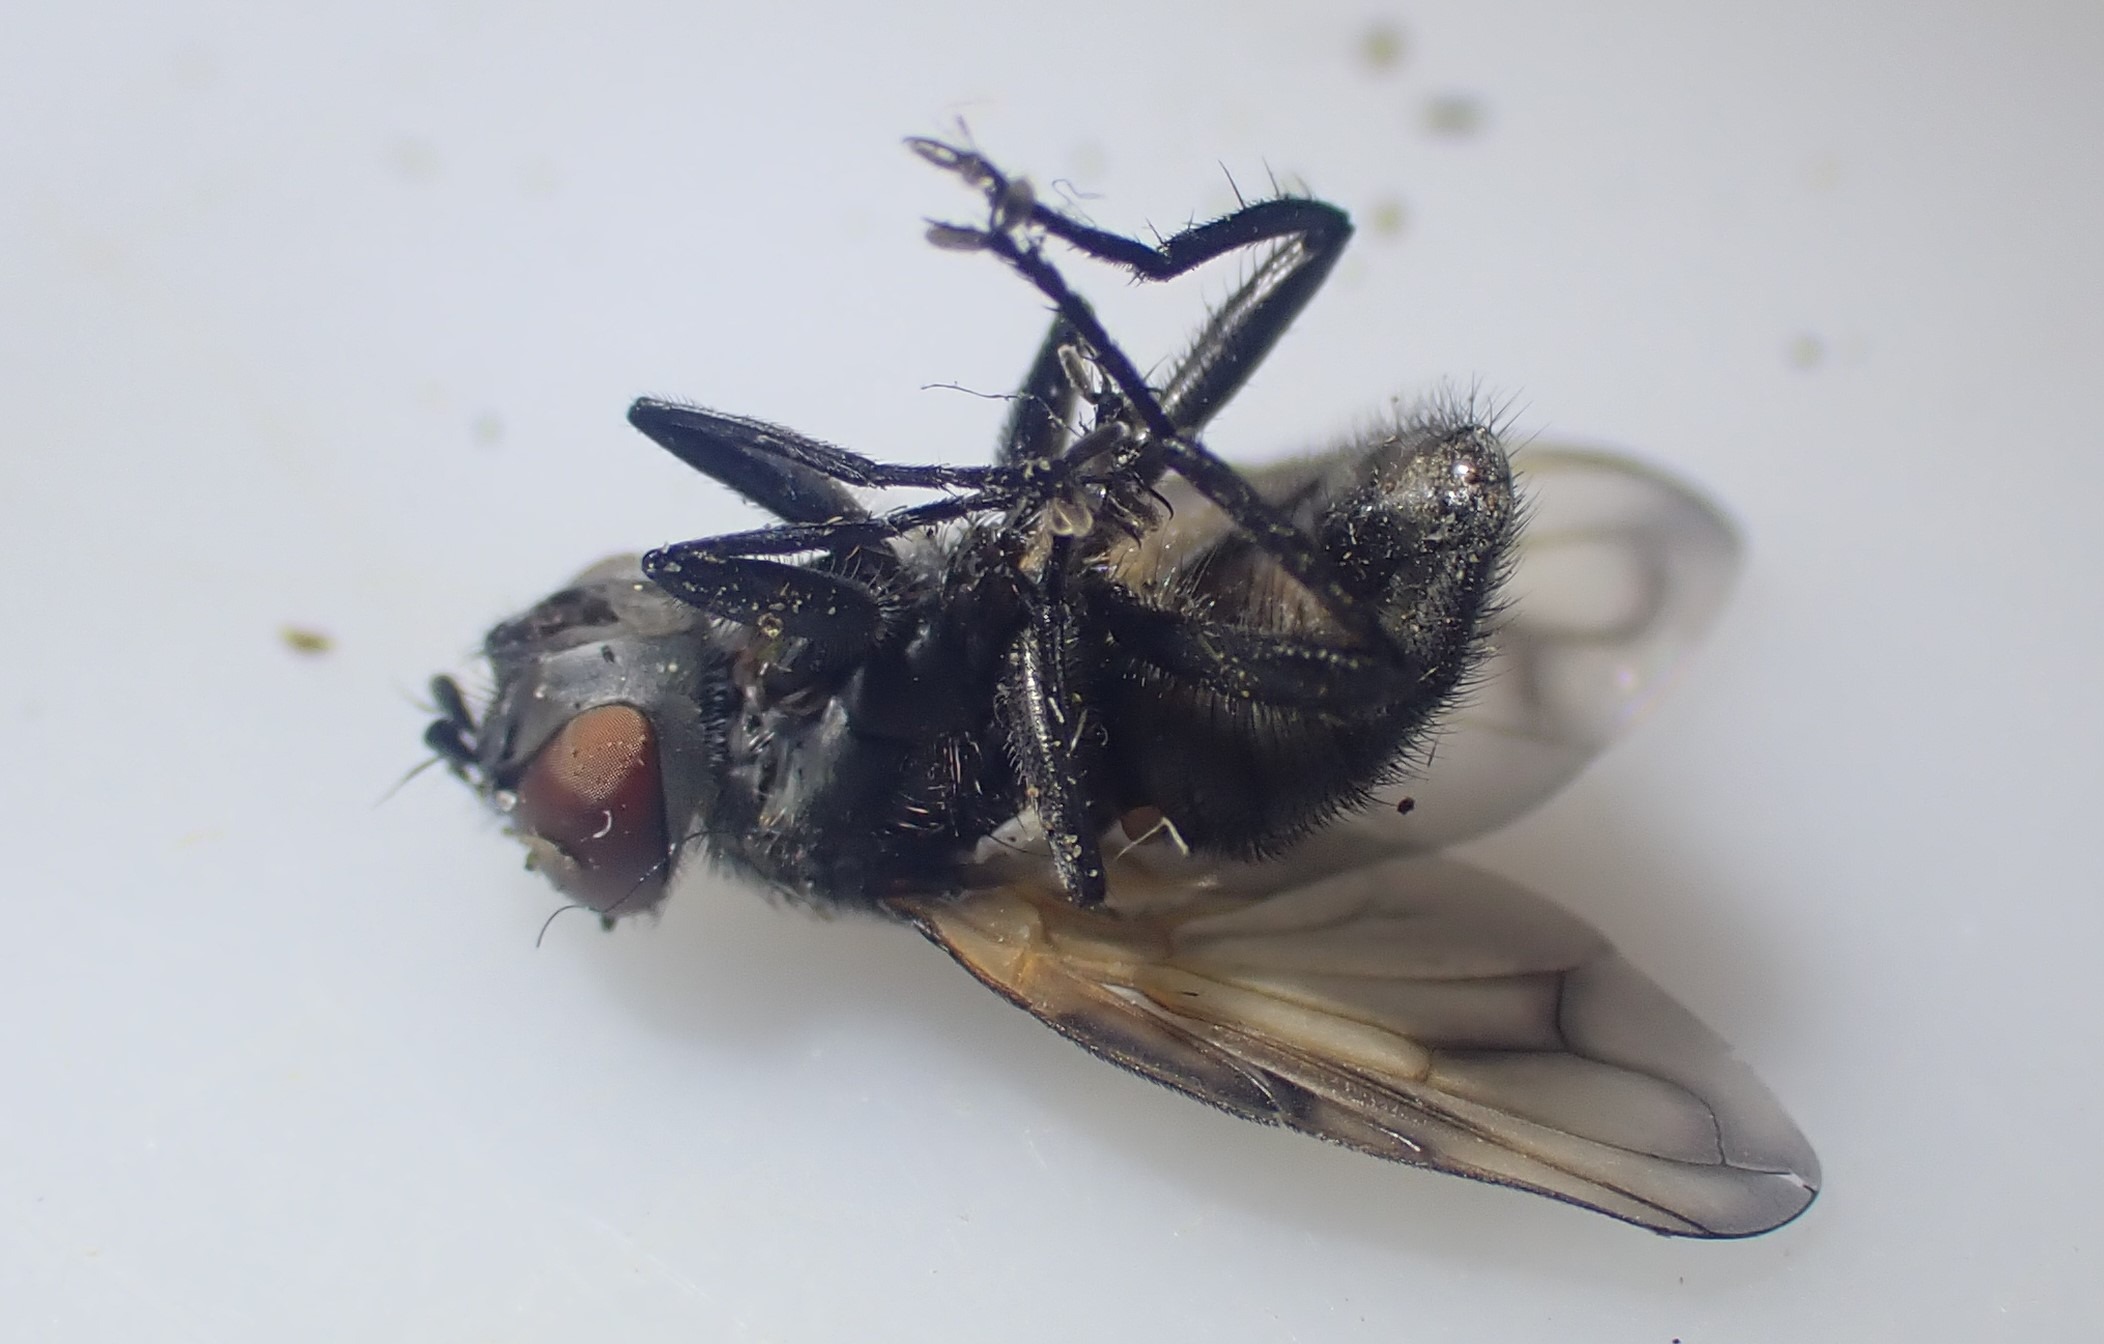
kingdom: Animalia
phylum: Arthropoda
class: Insecta
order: Diptera
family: Tachinidae
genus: Phasia
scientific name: Phasia obesa
